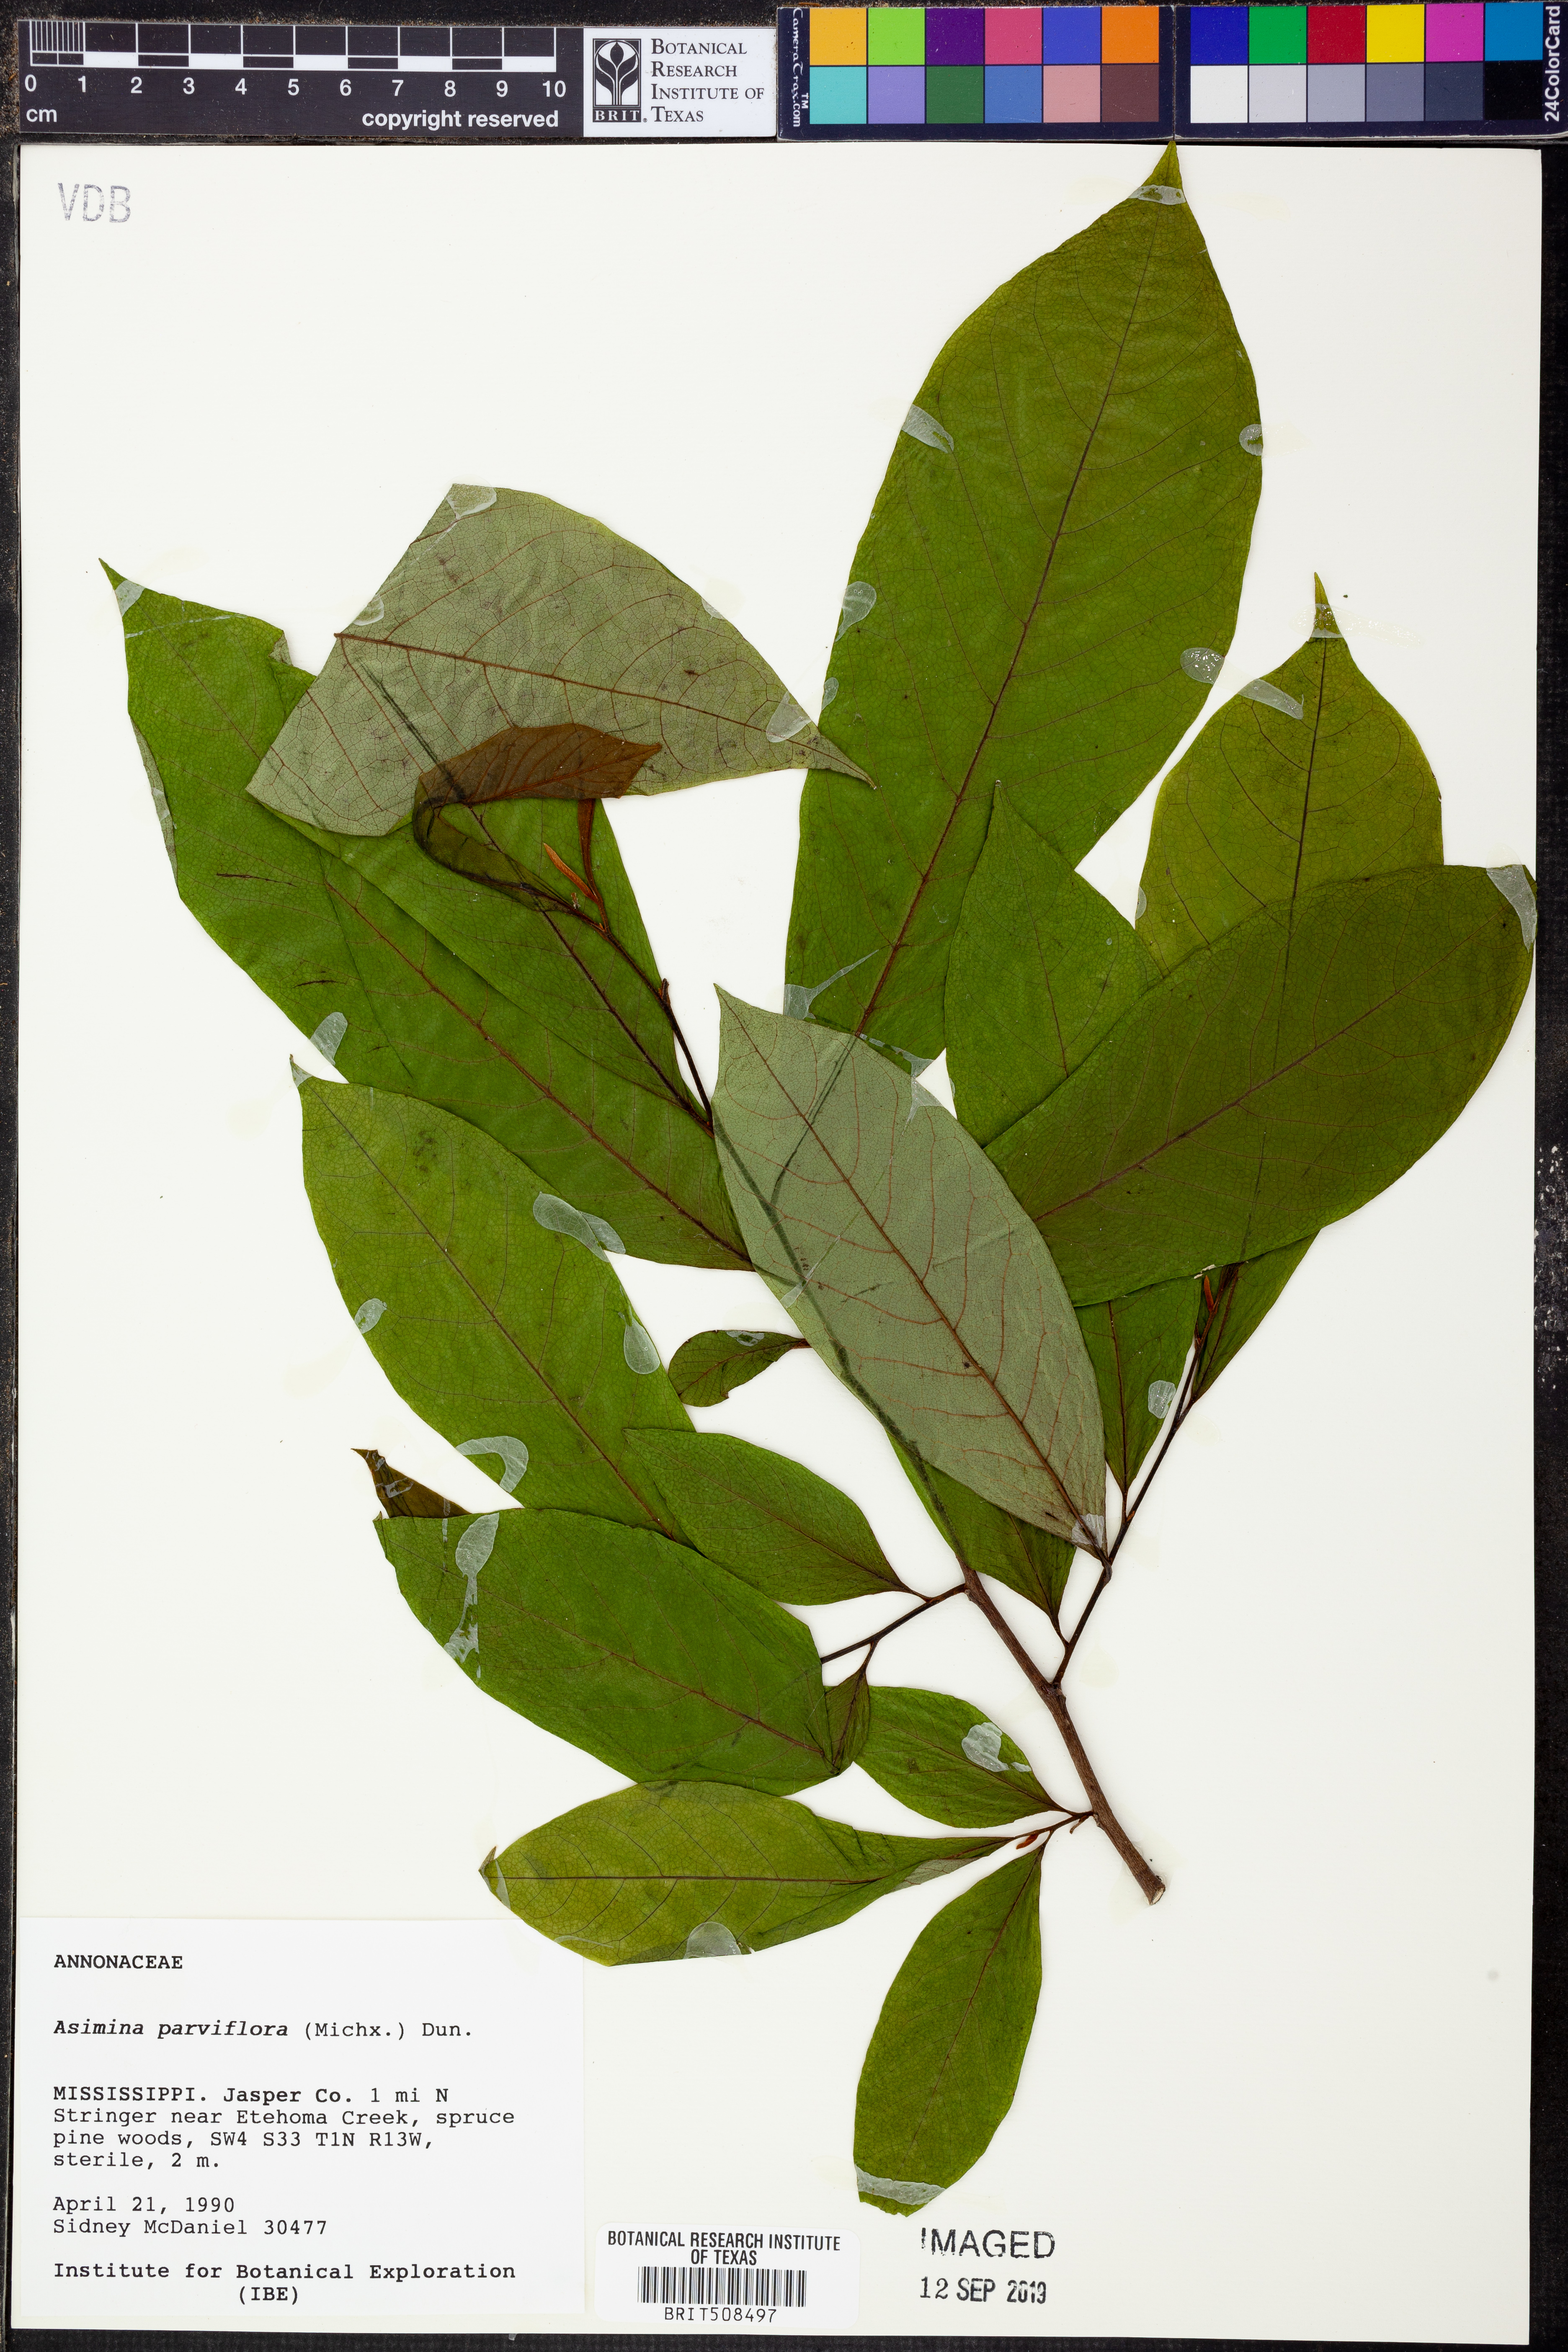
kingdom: Plantae
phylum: Tracheophyta
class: Magnoliopsida
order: Magnoliales
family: Annonaceae
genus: Asimina
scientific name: Asimina parviflora
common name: Dwarf pawpaw
